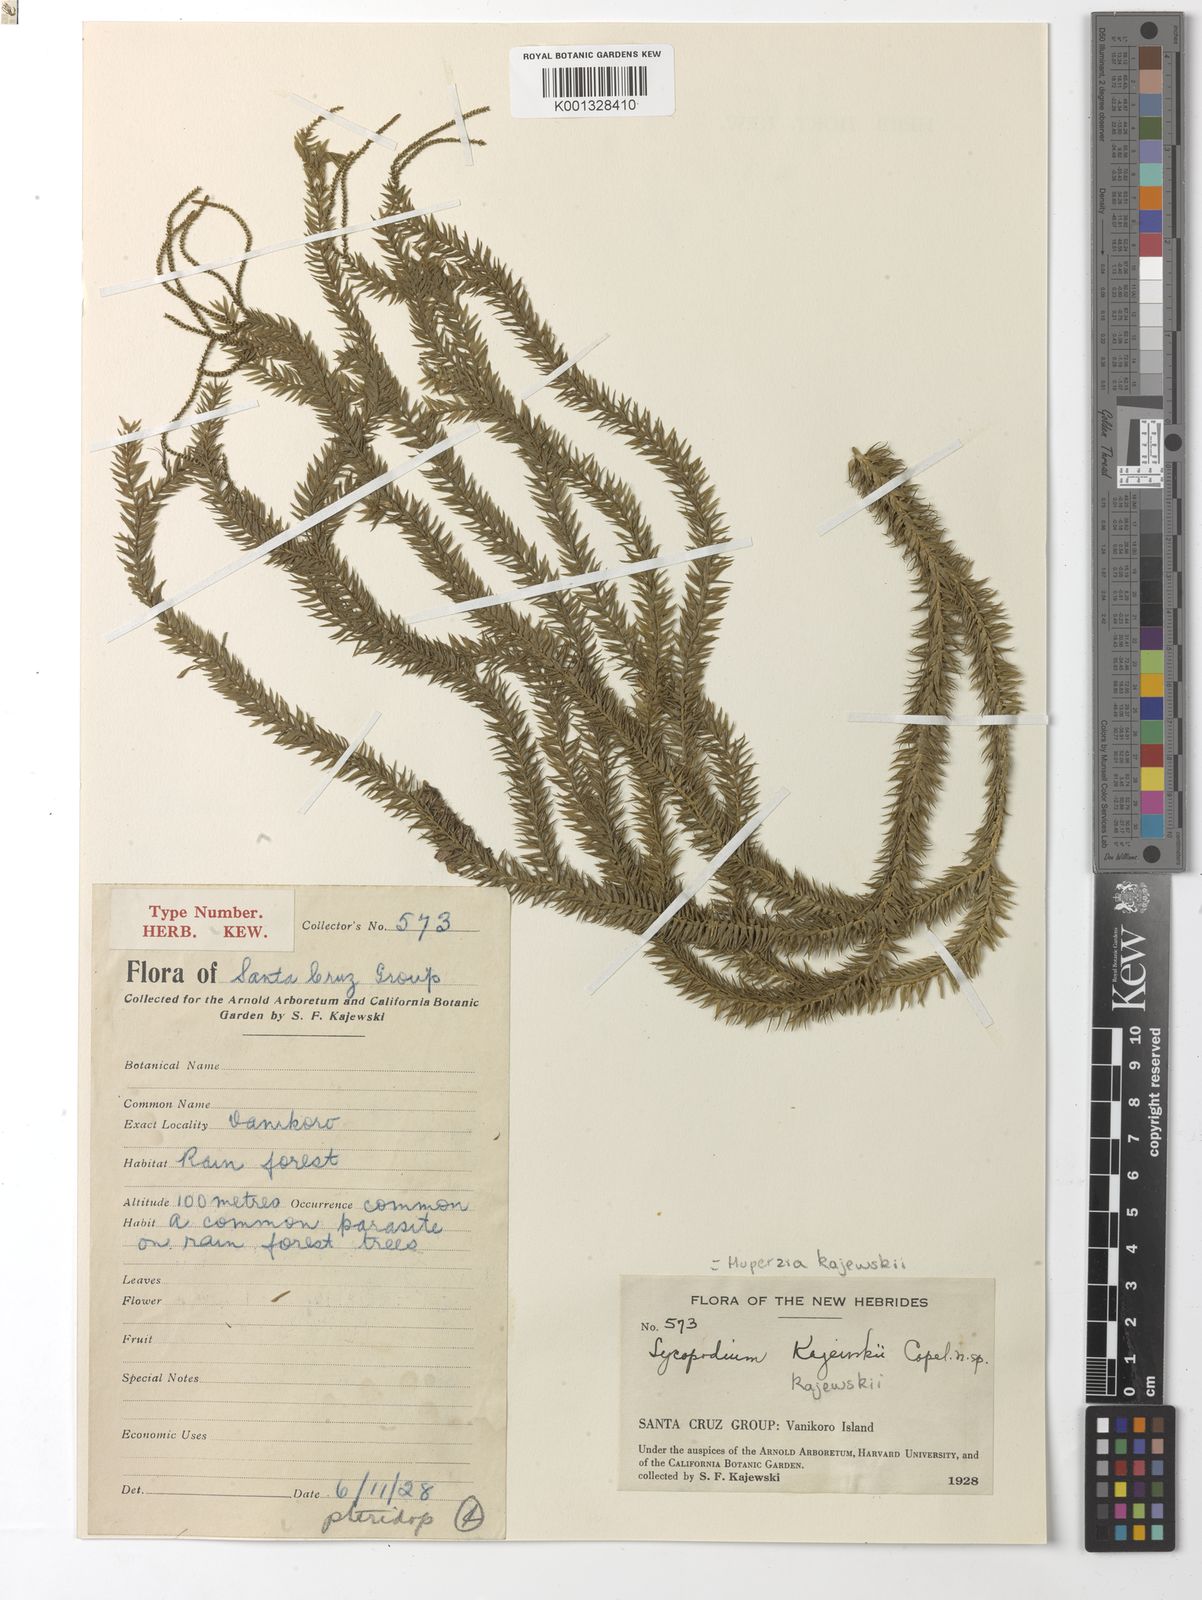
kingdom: Plantae
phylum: Tracheophyta
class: Lycopodiopsida
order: Lycopodiales
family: Lycopodiaceae
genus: Phlegmariurus
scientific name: Phlegmariurus kajewskii
